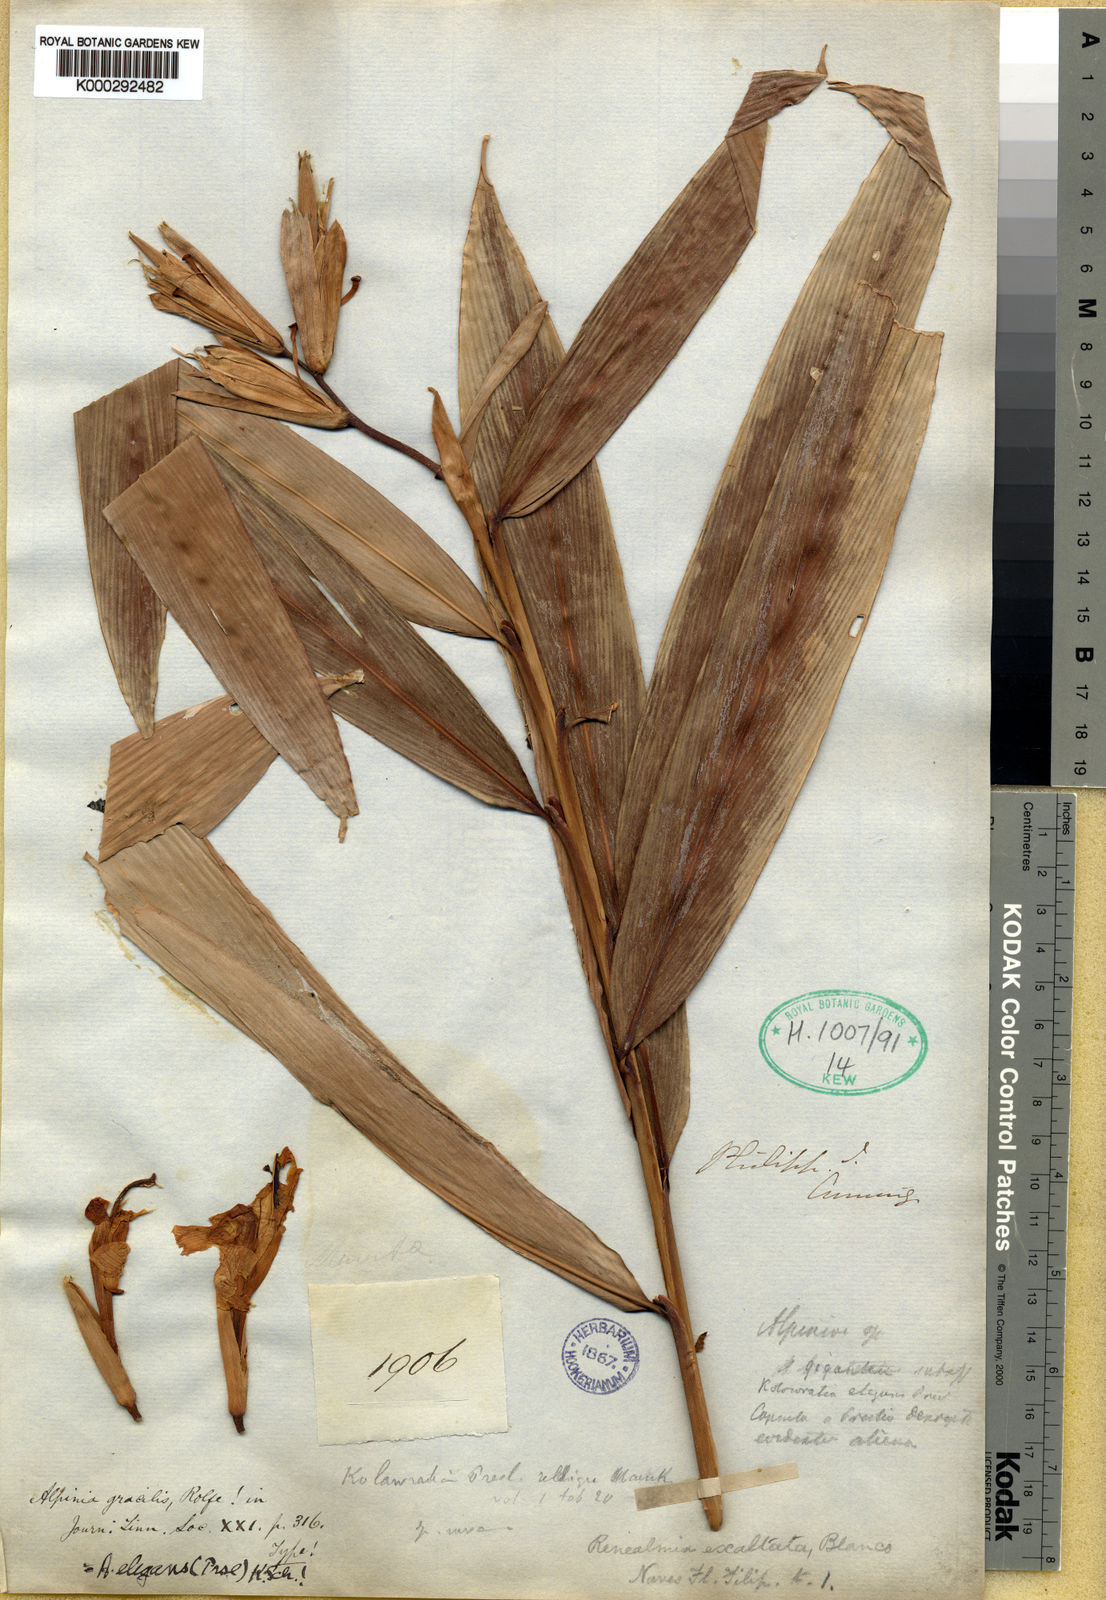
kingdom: Plantae
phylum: Tracheophyta
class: Liliopsida
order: Zingiberales
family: Zingiberaceae
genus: Alpinia
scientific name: Alpinia elegans
